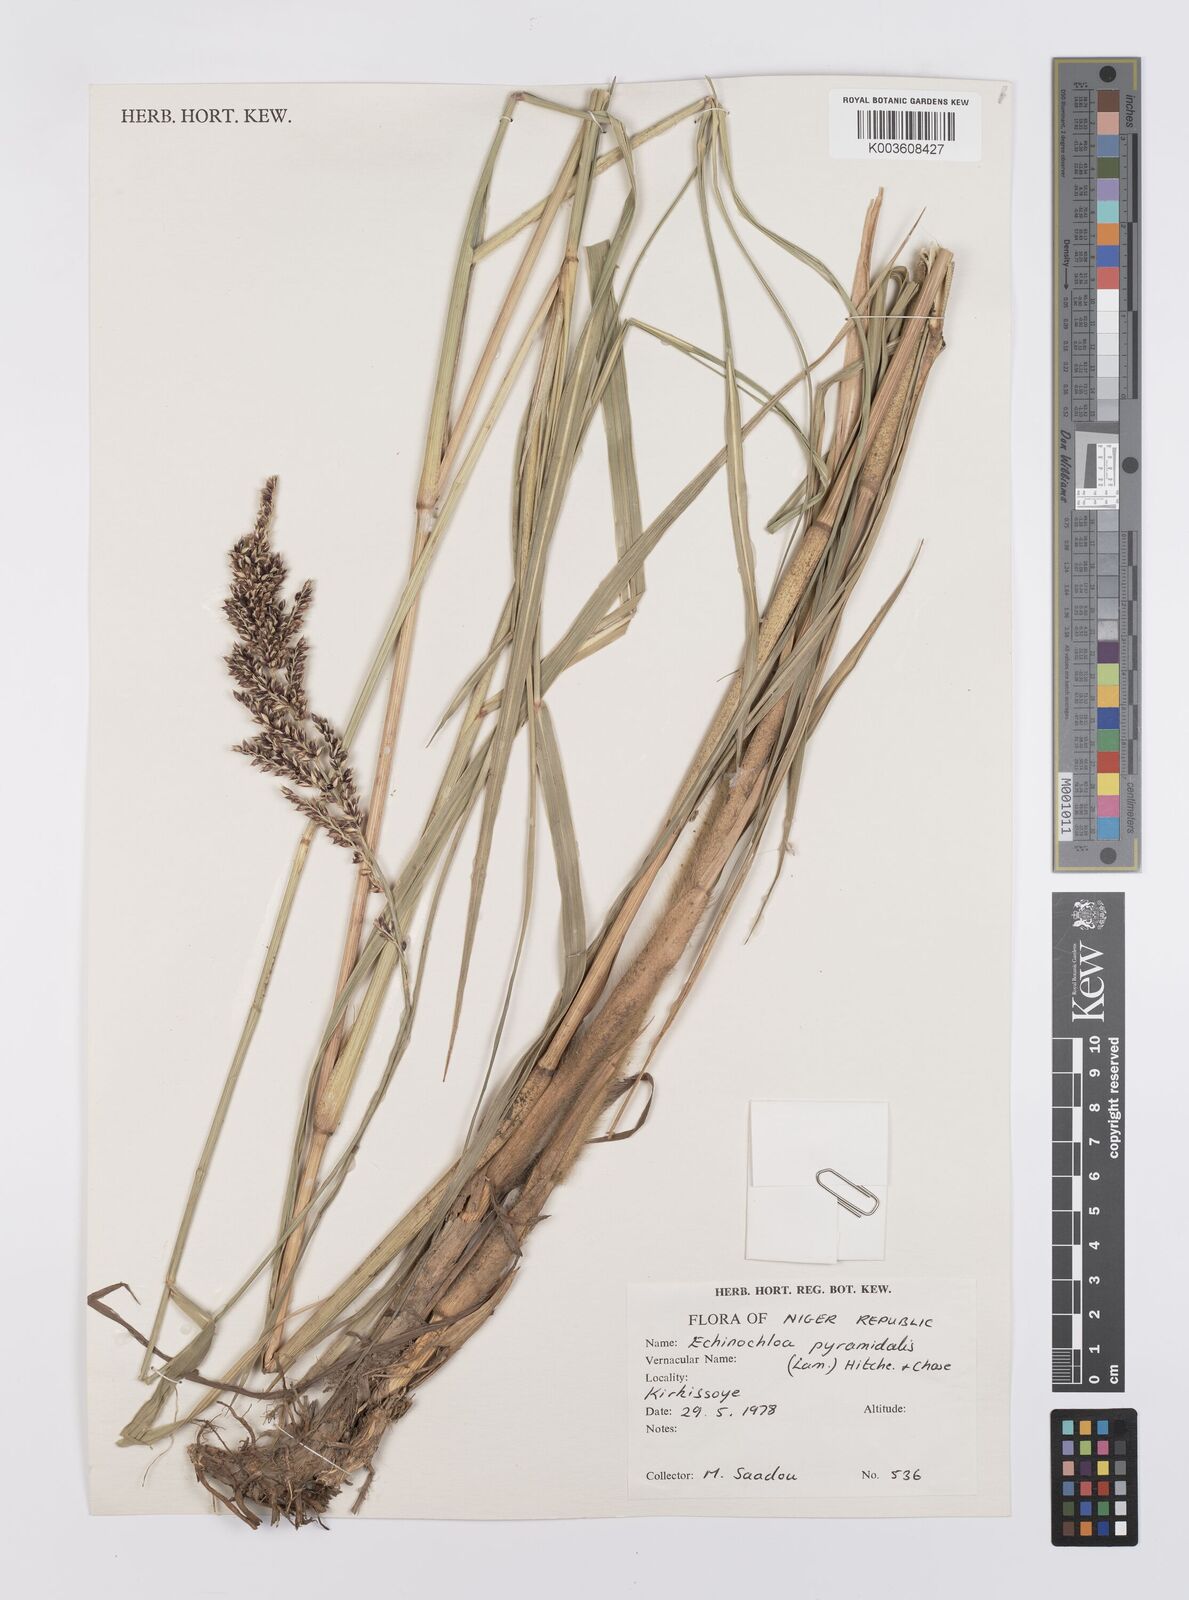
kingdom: Plantae
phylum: Tracheophyta
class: Liliopsida
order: Poales
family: Poaceae
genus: Echinochloa
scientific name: Echinochloa pyramidalis
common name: Antelope grass
